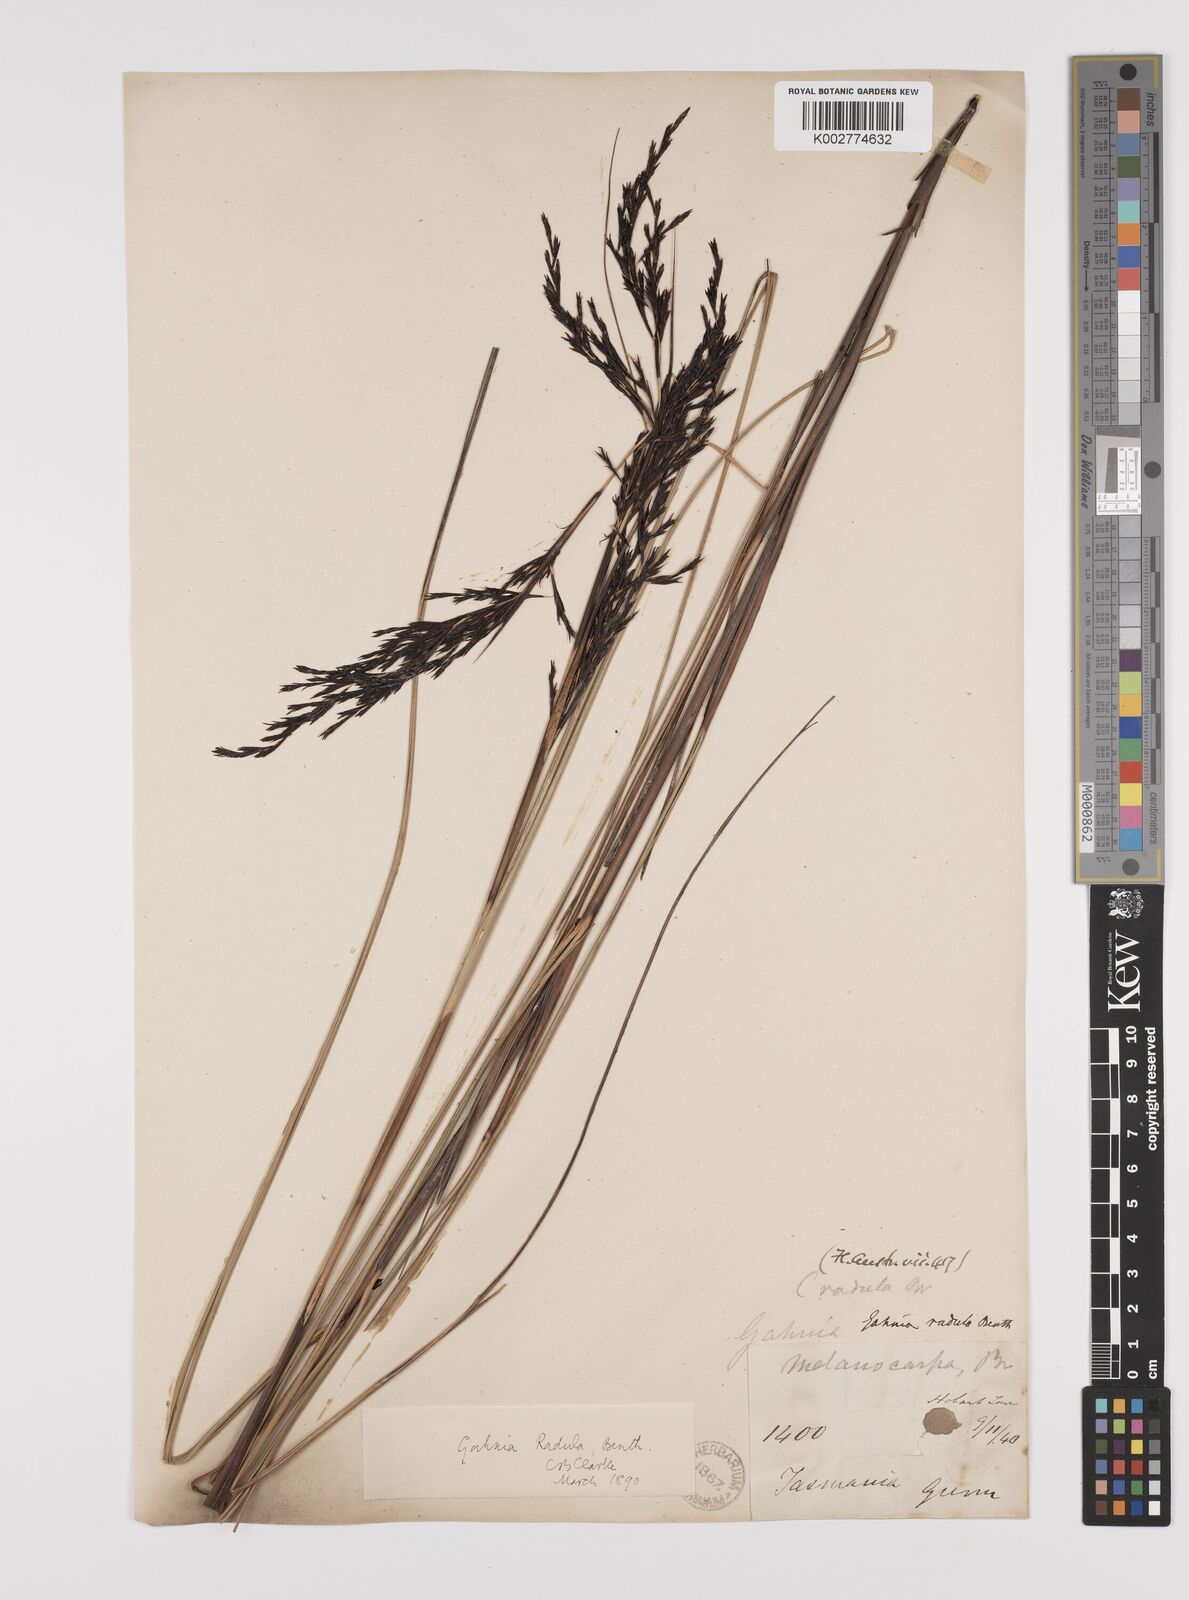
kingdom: Plantae
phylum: Tracheophyta
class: Liliopsida
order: Poales
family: Cyperaceae
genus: Gahnia
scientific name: Gahnia radula
